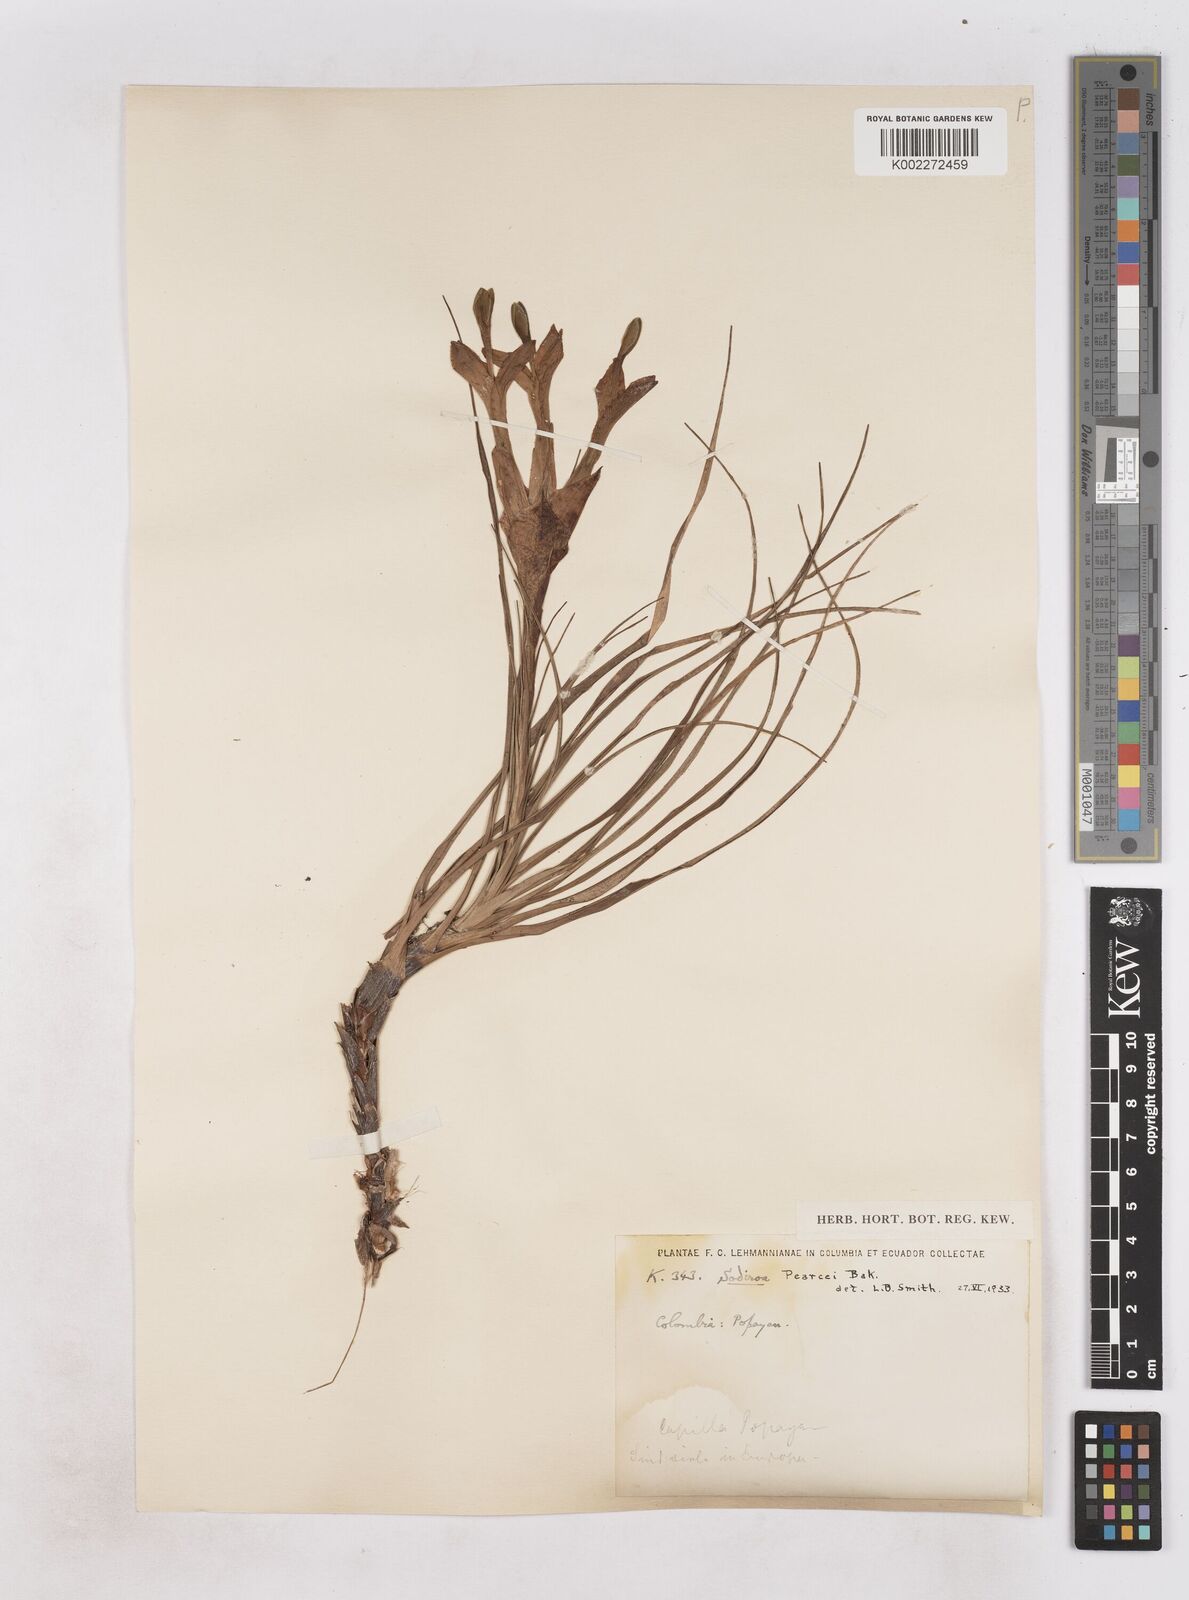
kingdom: Plantae
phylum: Tracheophyta
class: Liliopsida
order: Poales
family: Bromeliaceae
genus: Guzmania
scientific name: Guzmania pearcei
